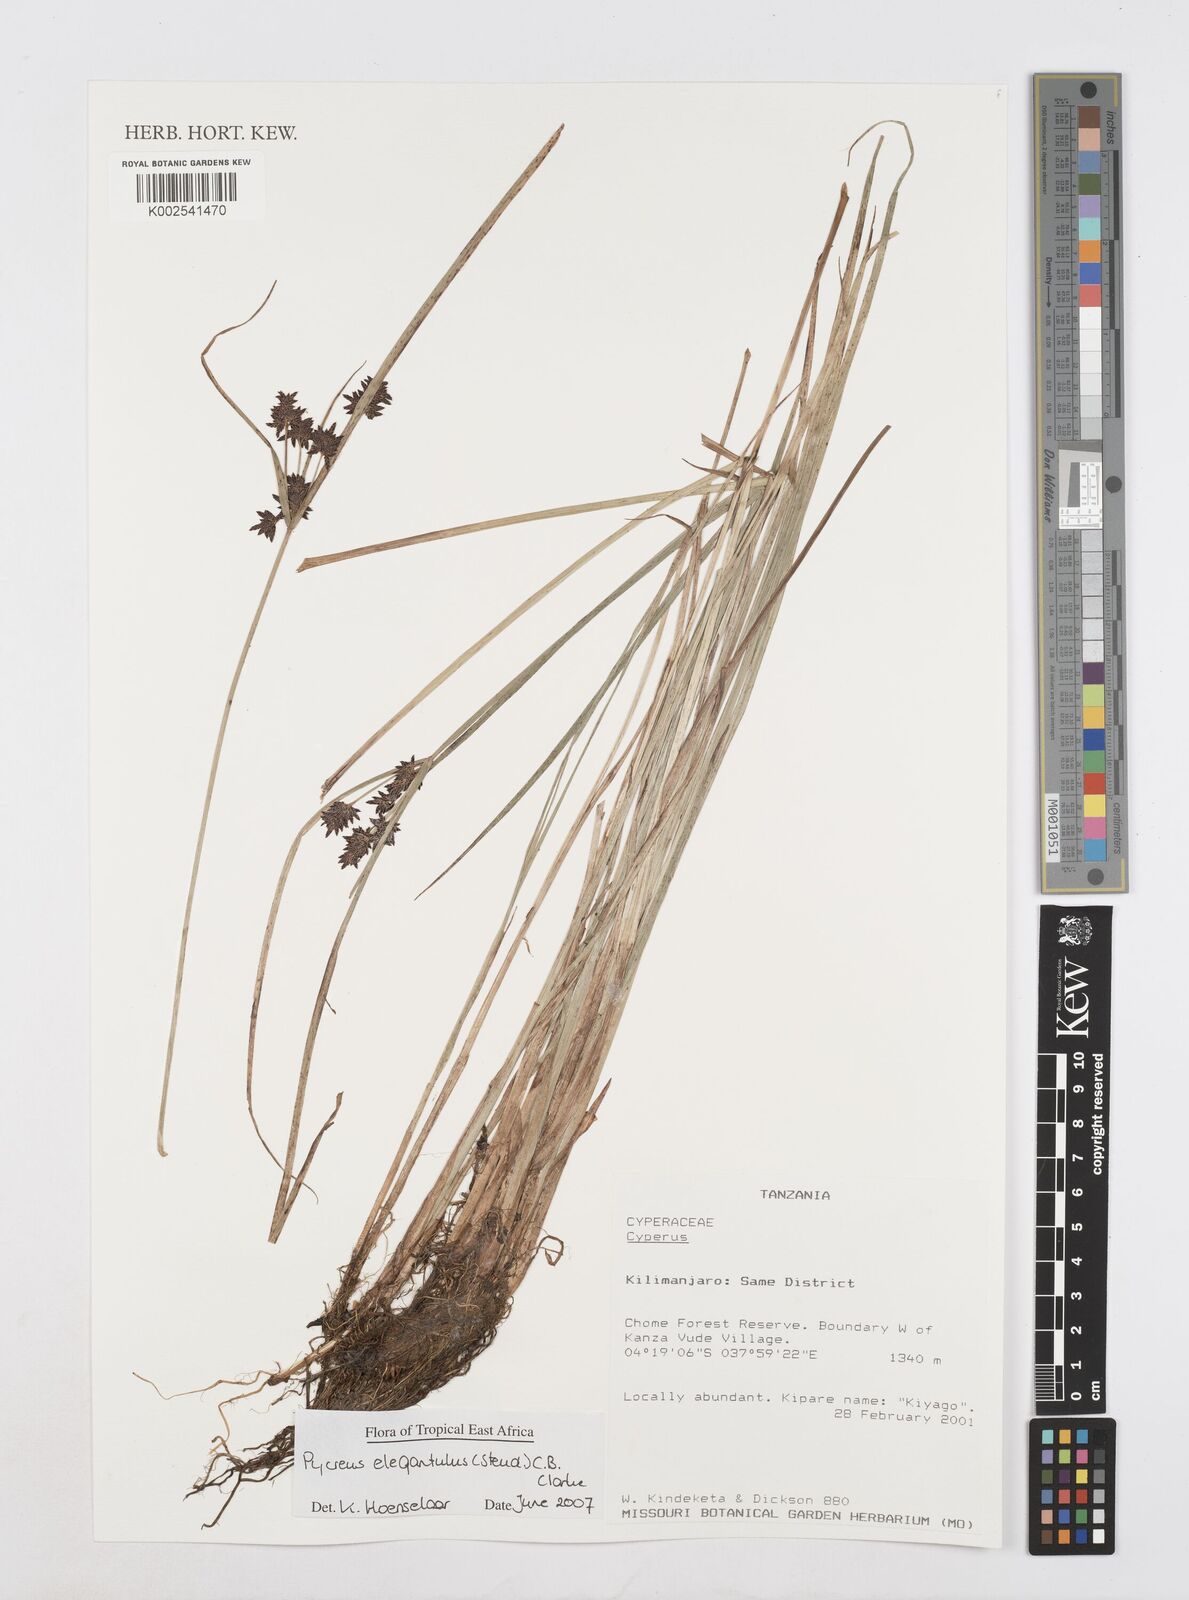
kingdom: Plantae
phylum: Tracheophyta
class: Liliopsida
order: Poales
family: Cyperaceae
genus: Cyperus
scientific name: Cyperus elegantulus
